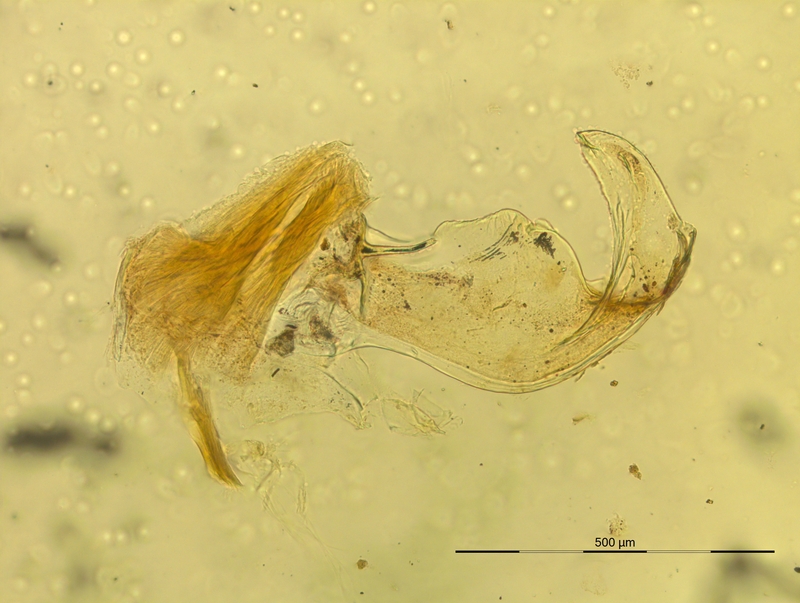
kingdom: Animalia
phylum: Arthropoda
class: Diplopoda
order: Chordeumatida
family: Craspedosomatidae
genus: Pterygophorosoma
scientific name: Pterygophorosoma cornuigerum
